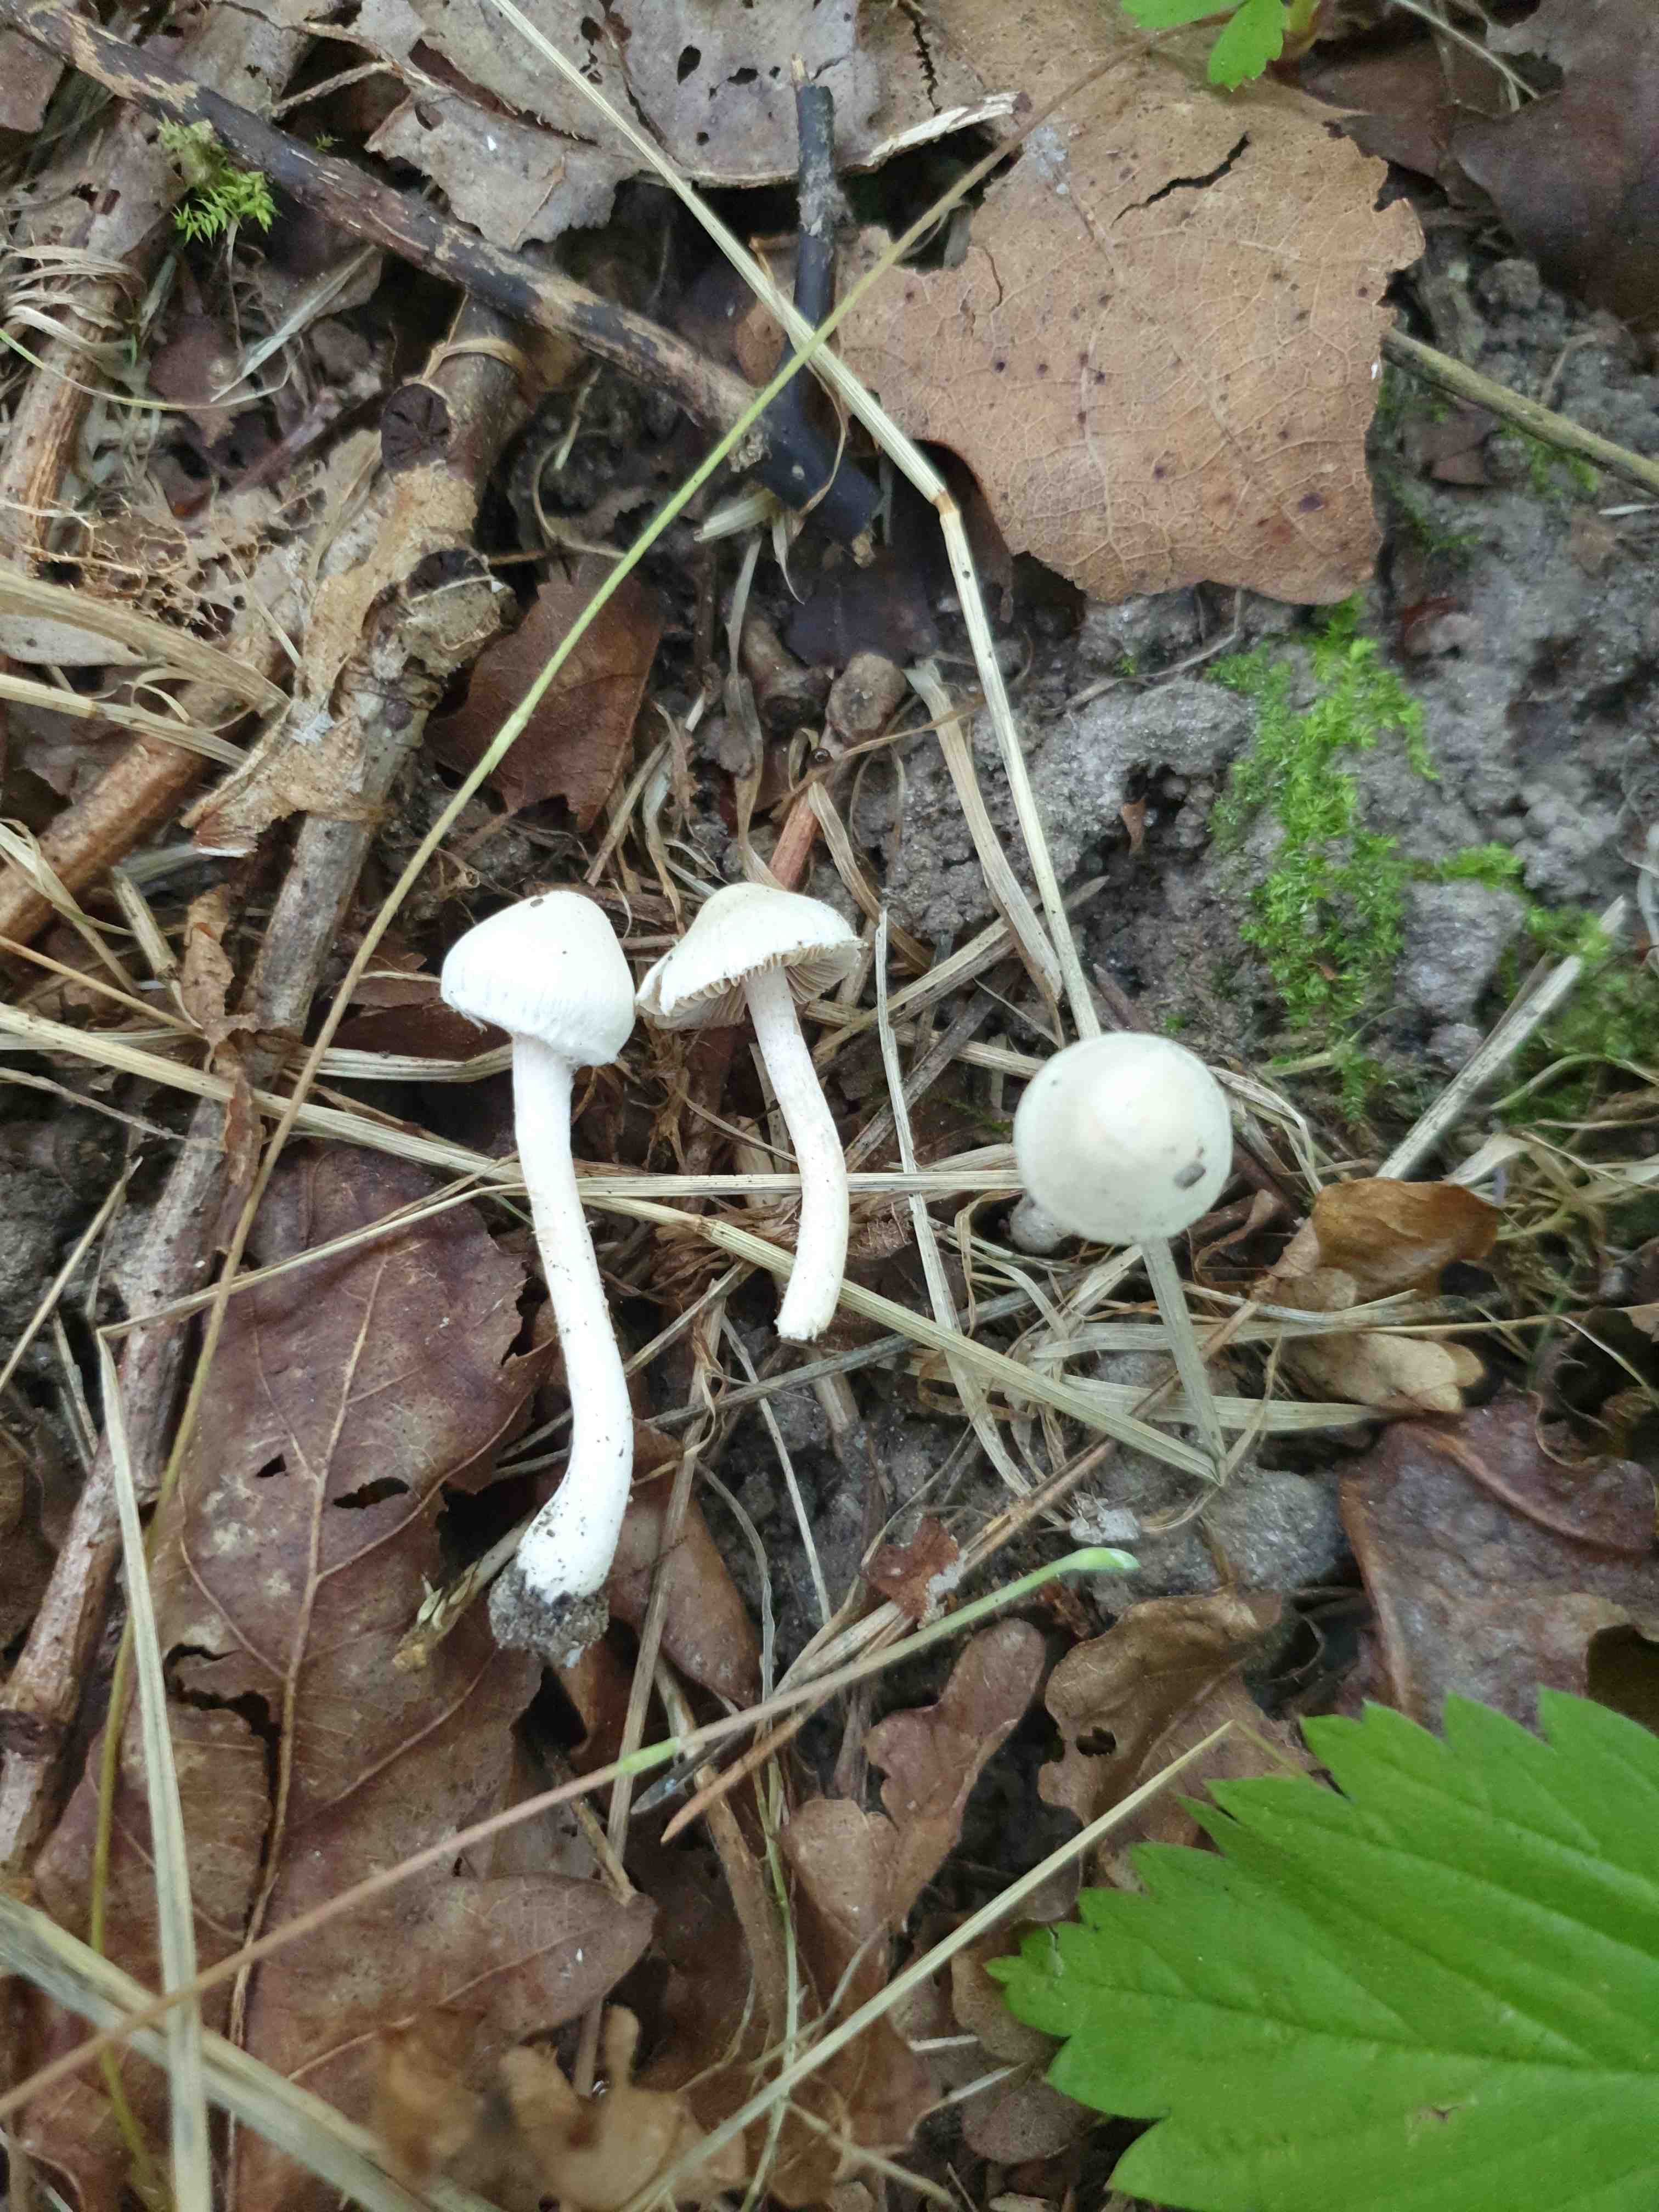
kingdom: Fungi
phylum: Basidiomycota
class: Agaricomycetes
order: Agaricales
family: Inocybaceae
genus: Inocybe
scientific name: Inocybe
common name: almindelig trævlhat
